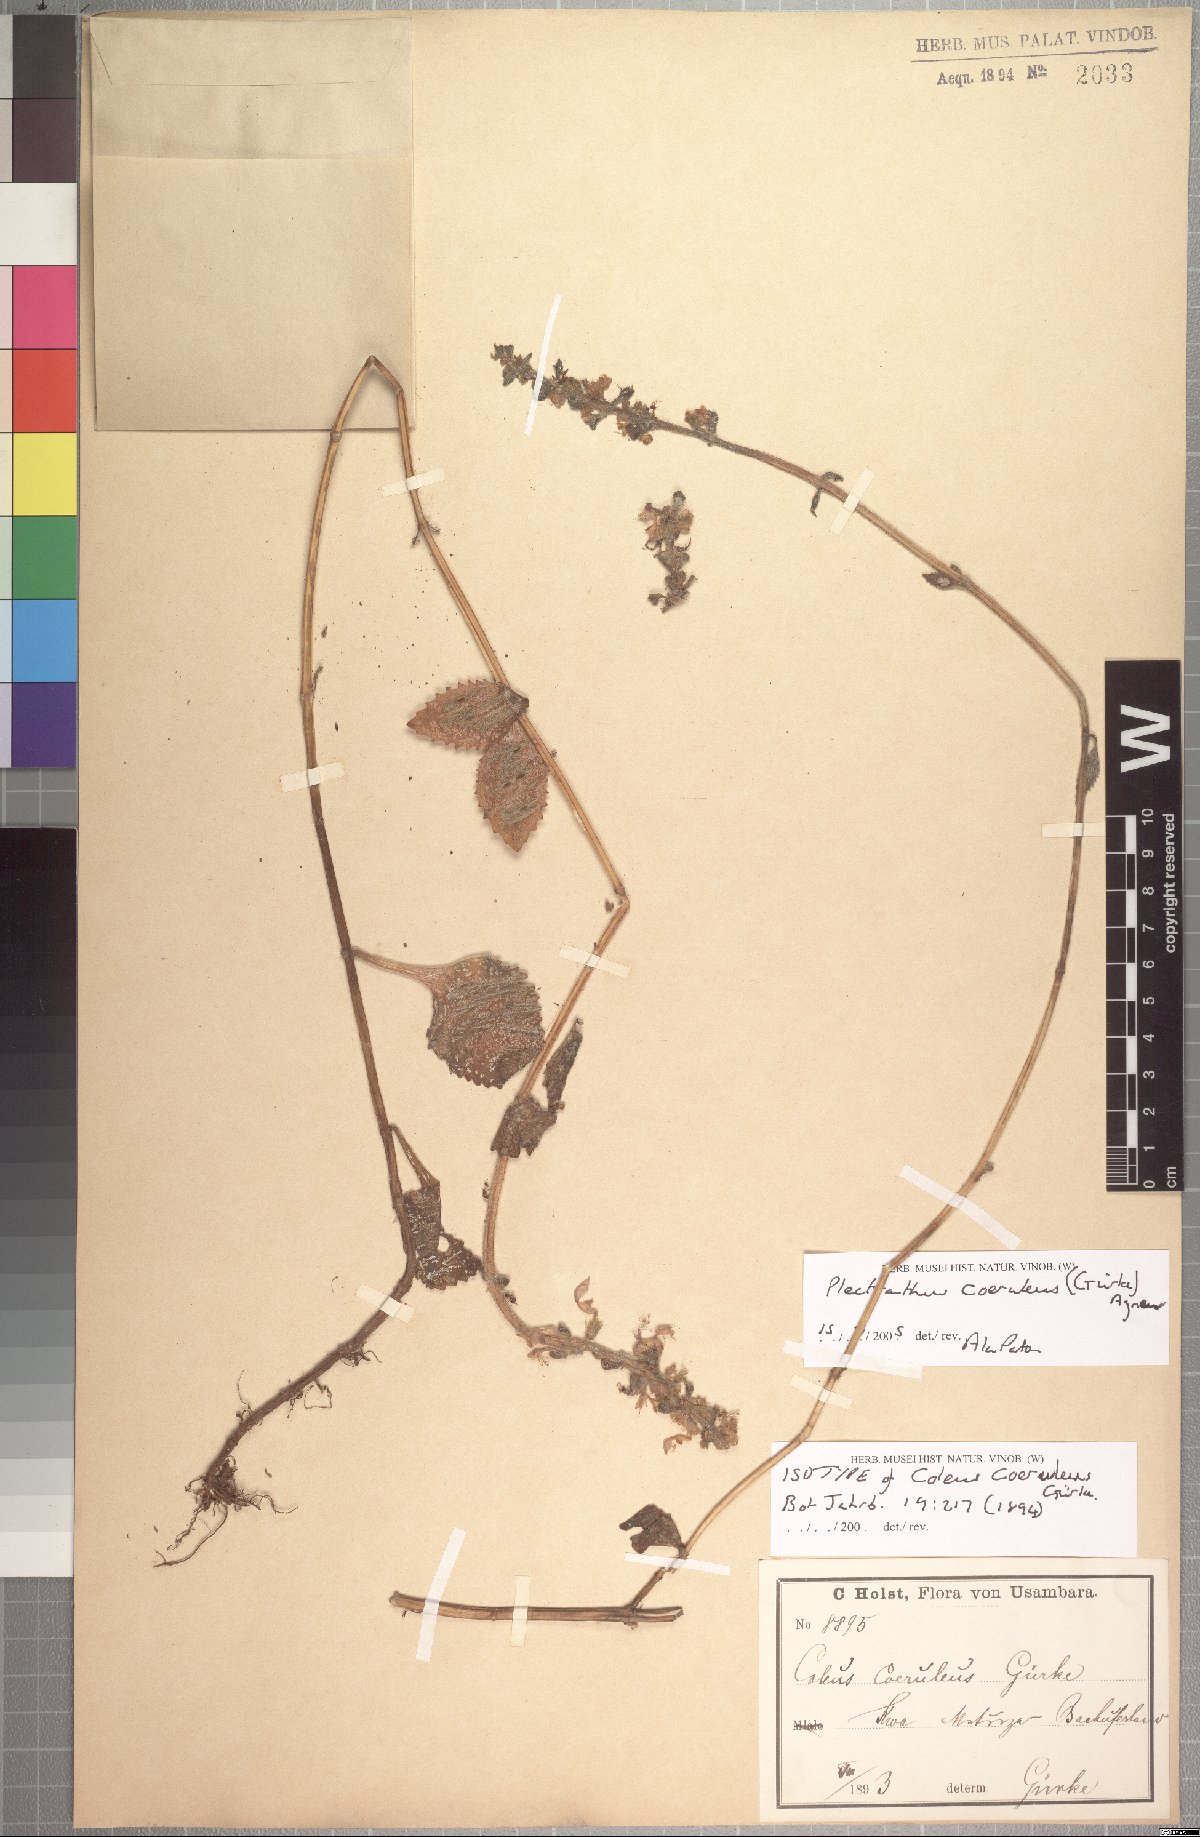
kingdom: Plantae
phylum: Tracheophyta
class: Magnoliopsida
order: Lamiales
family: Lamiaceae
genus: Coleus
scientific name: Coleus coeruleus
